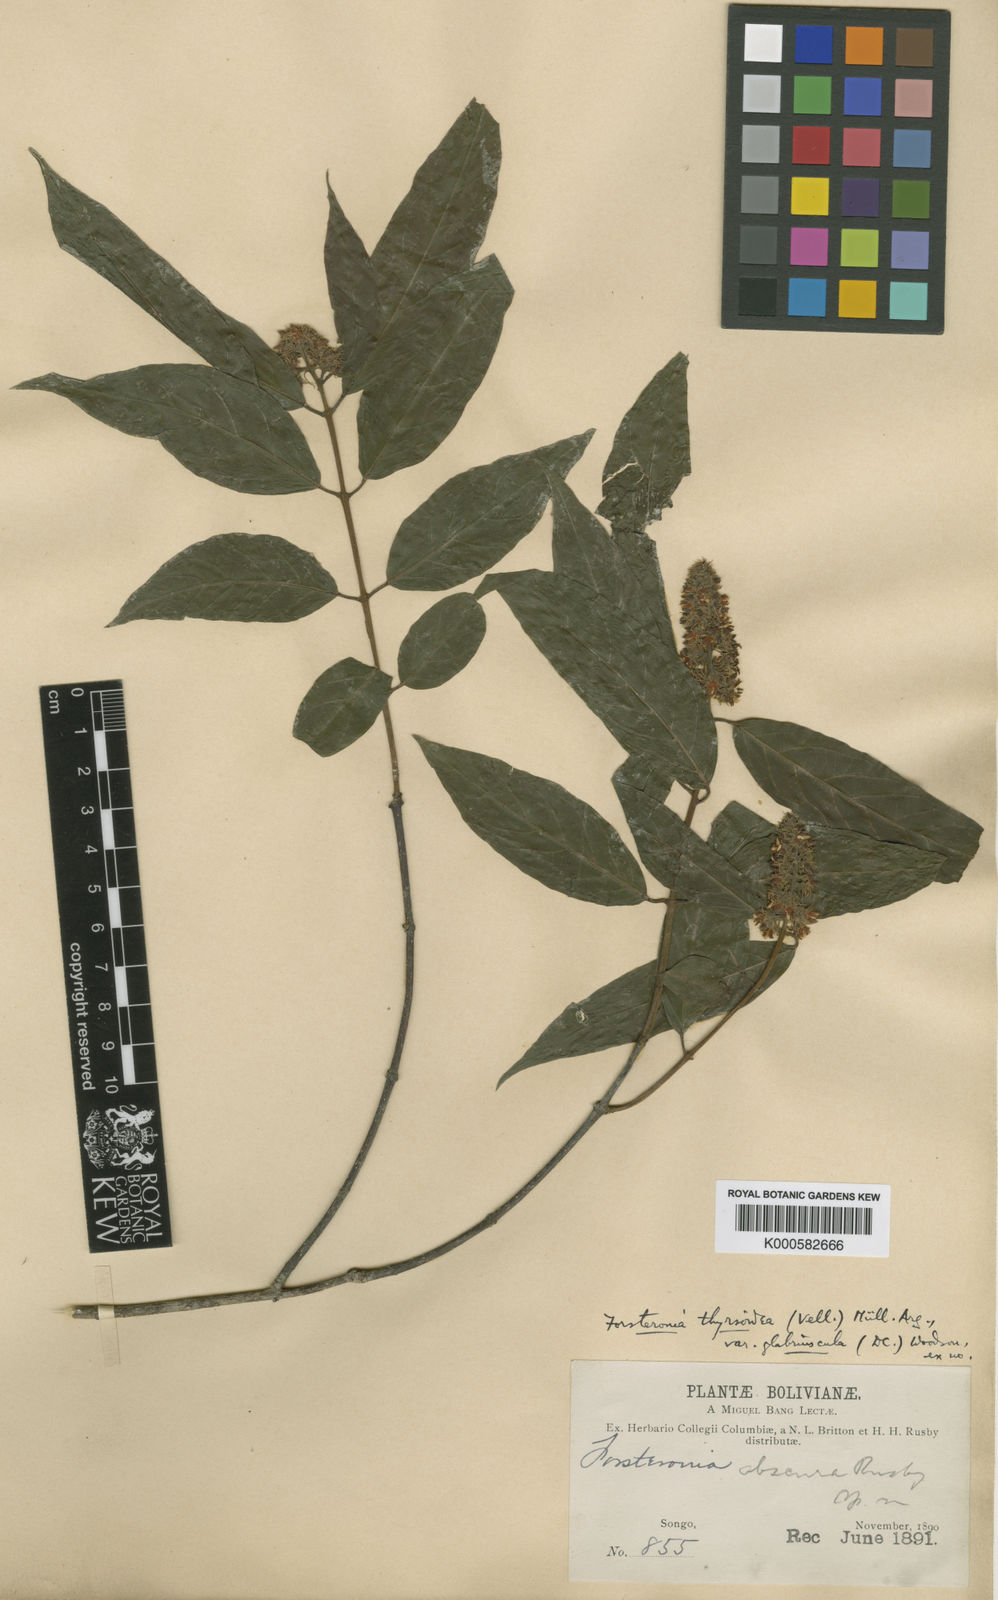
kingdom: Plantae
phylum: Tracheophyta
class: Magnoliopsida
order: Gentianales
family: Apocynaceae
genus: Forsteronia
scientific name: Forsteronia thyrsoidea
